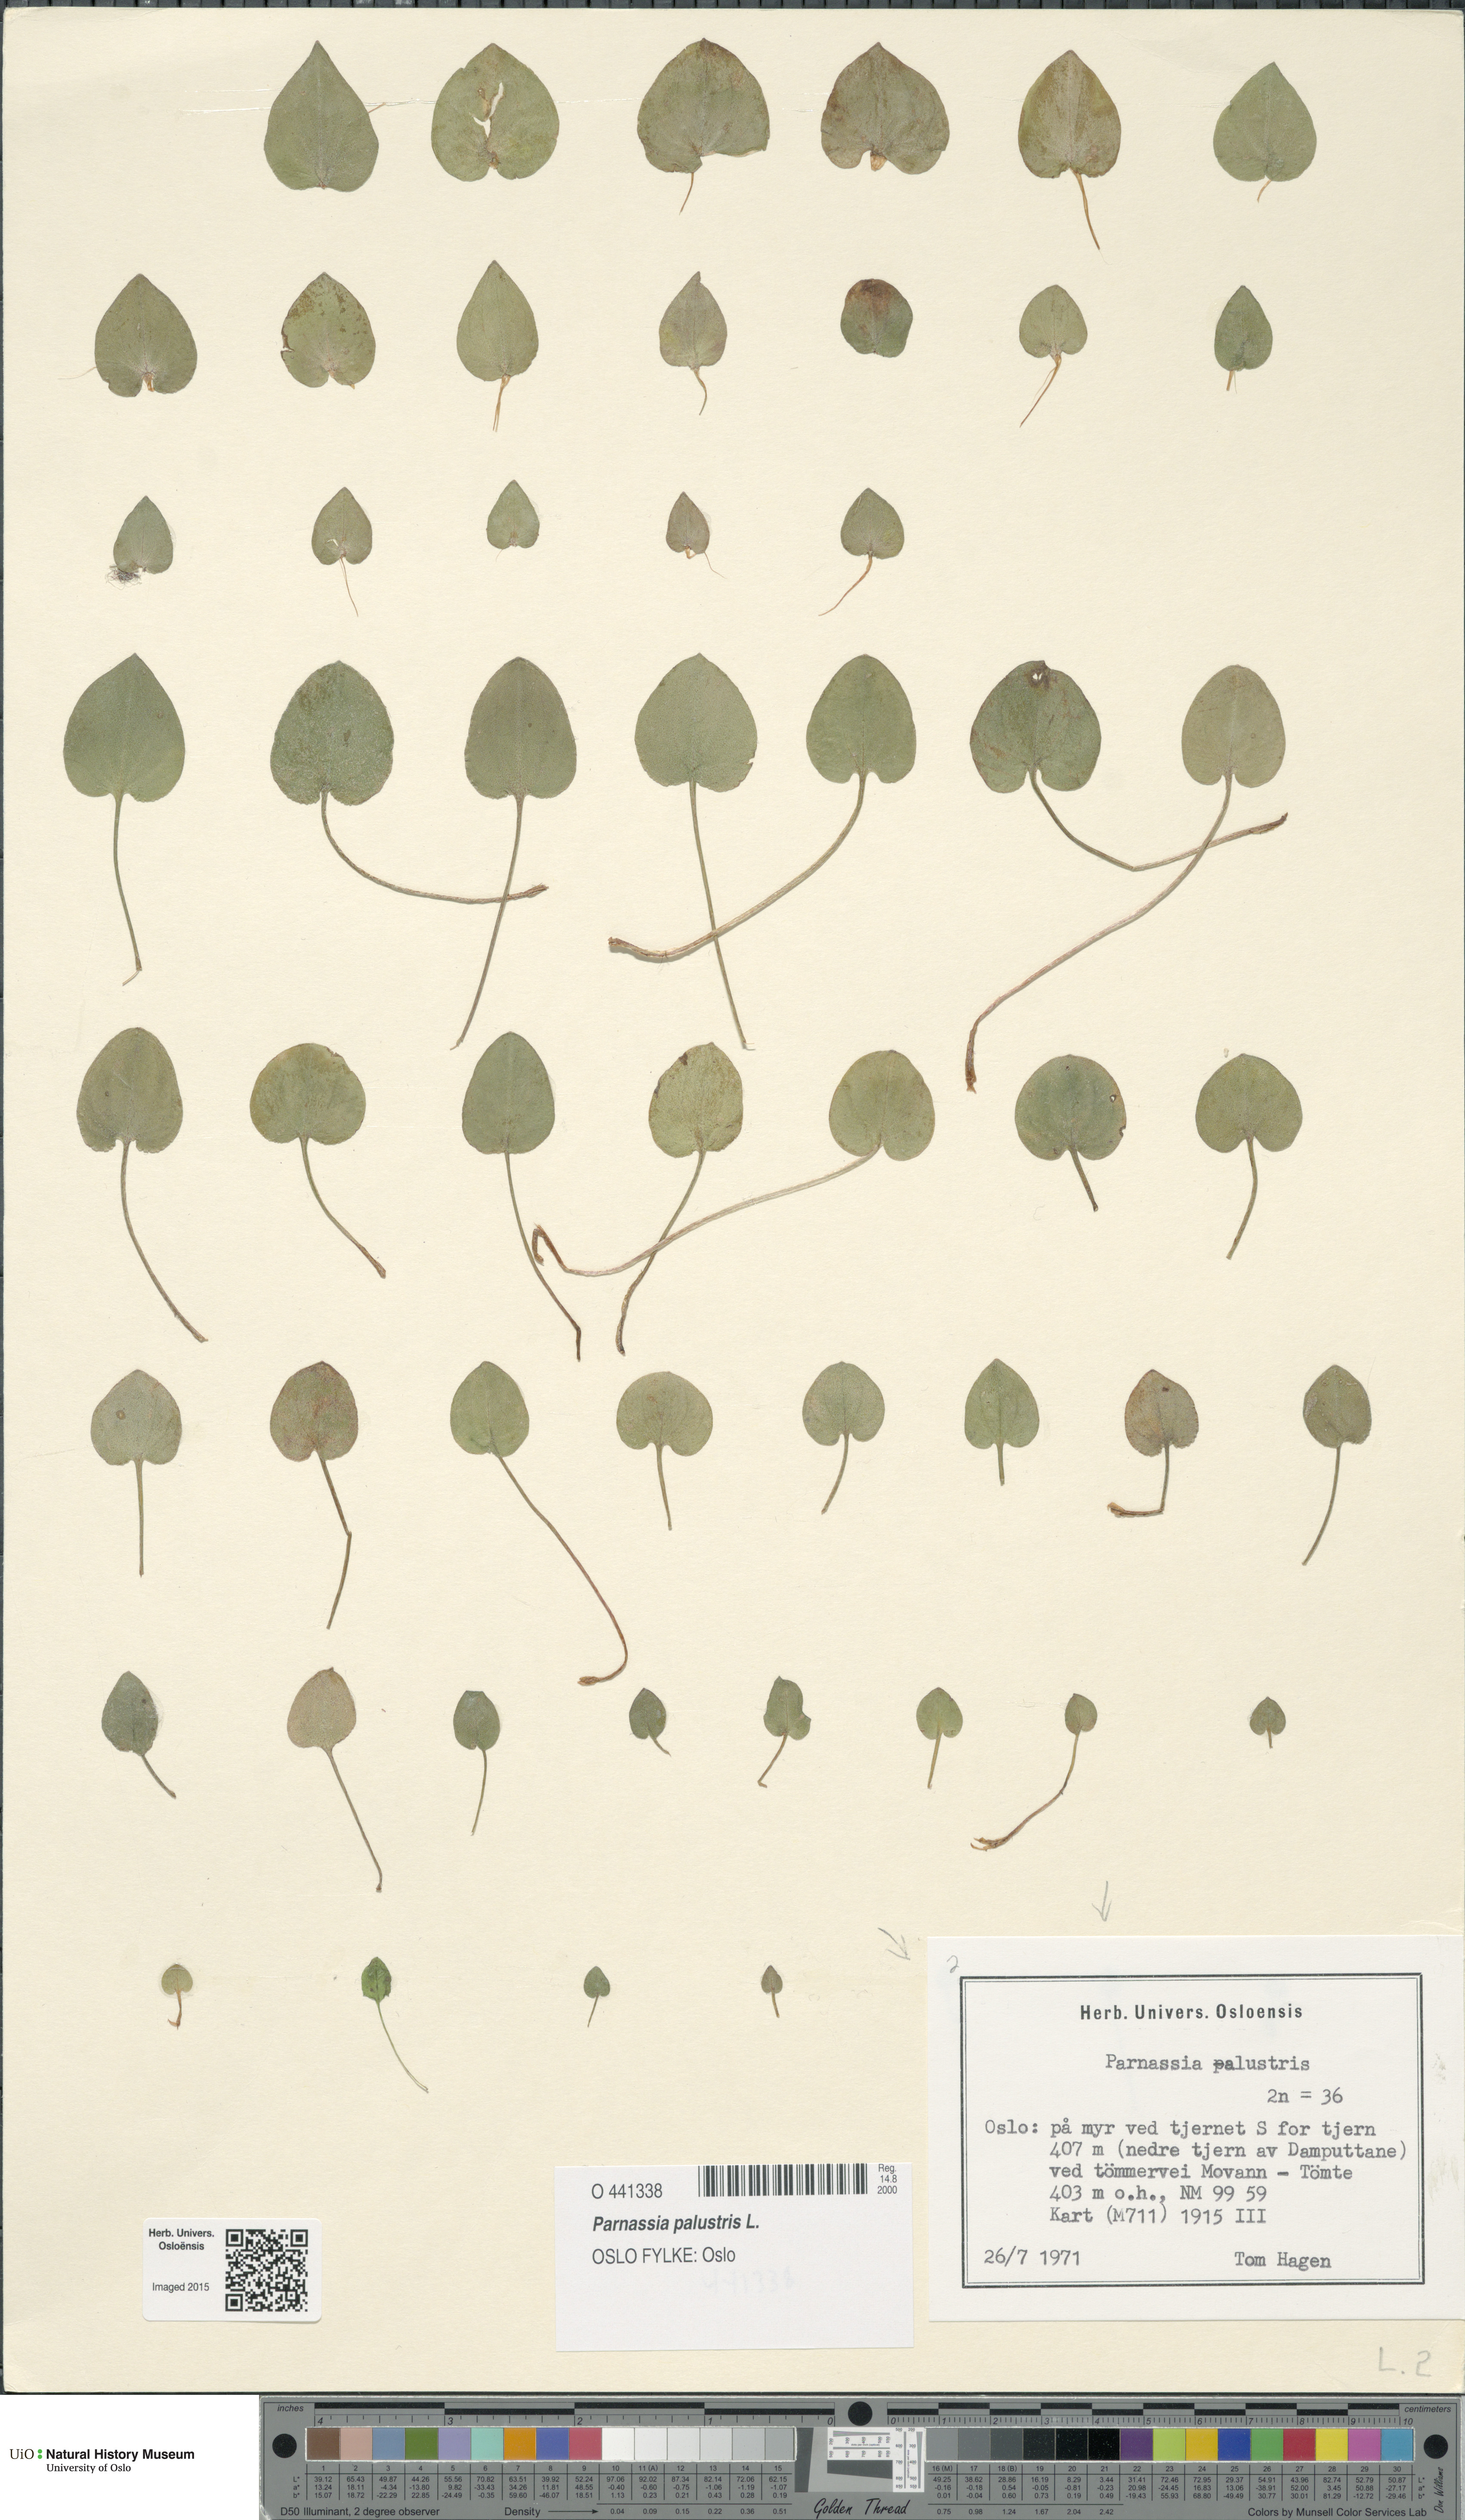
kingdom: Plantae
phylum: Tracheophyta
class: Magnoliopsida
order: Celastrales
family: Parnassiaceae
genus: Parnassia
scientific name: Parnassia palustris
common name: Grass-of-parnassus
